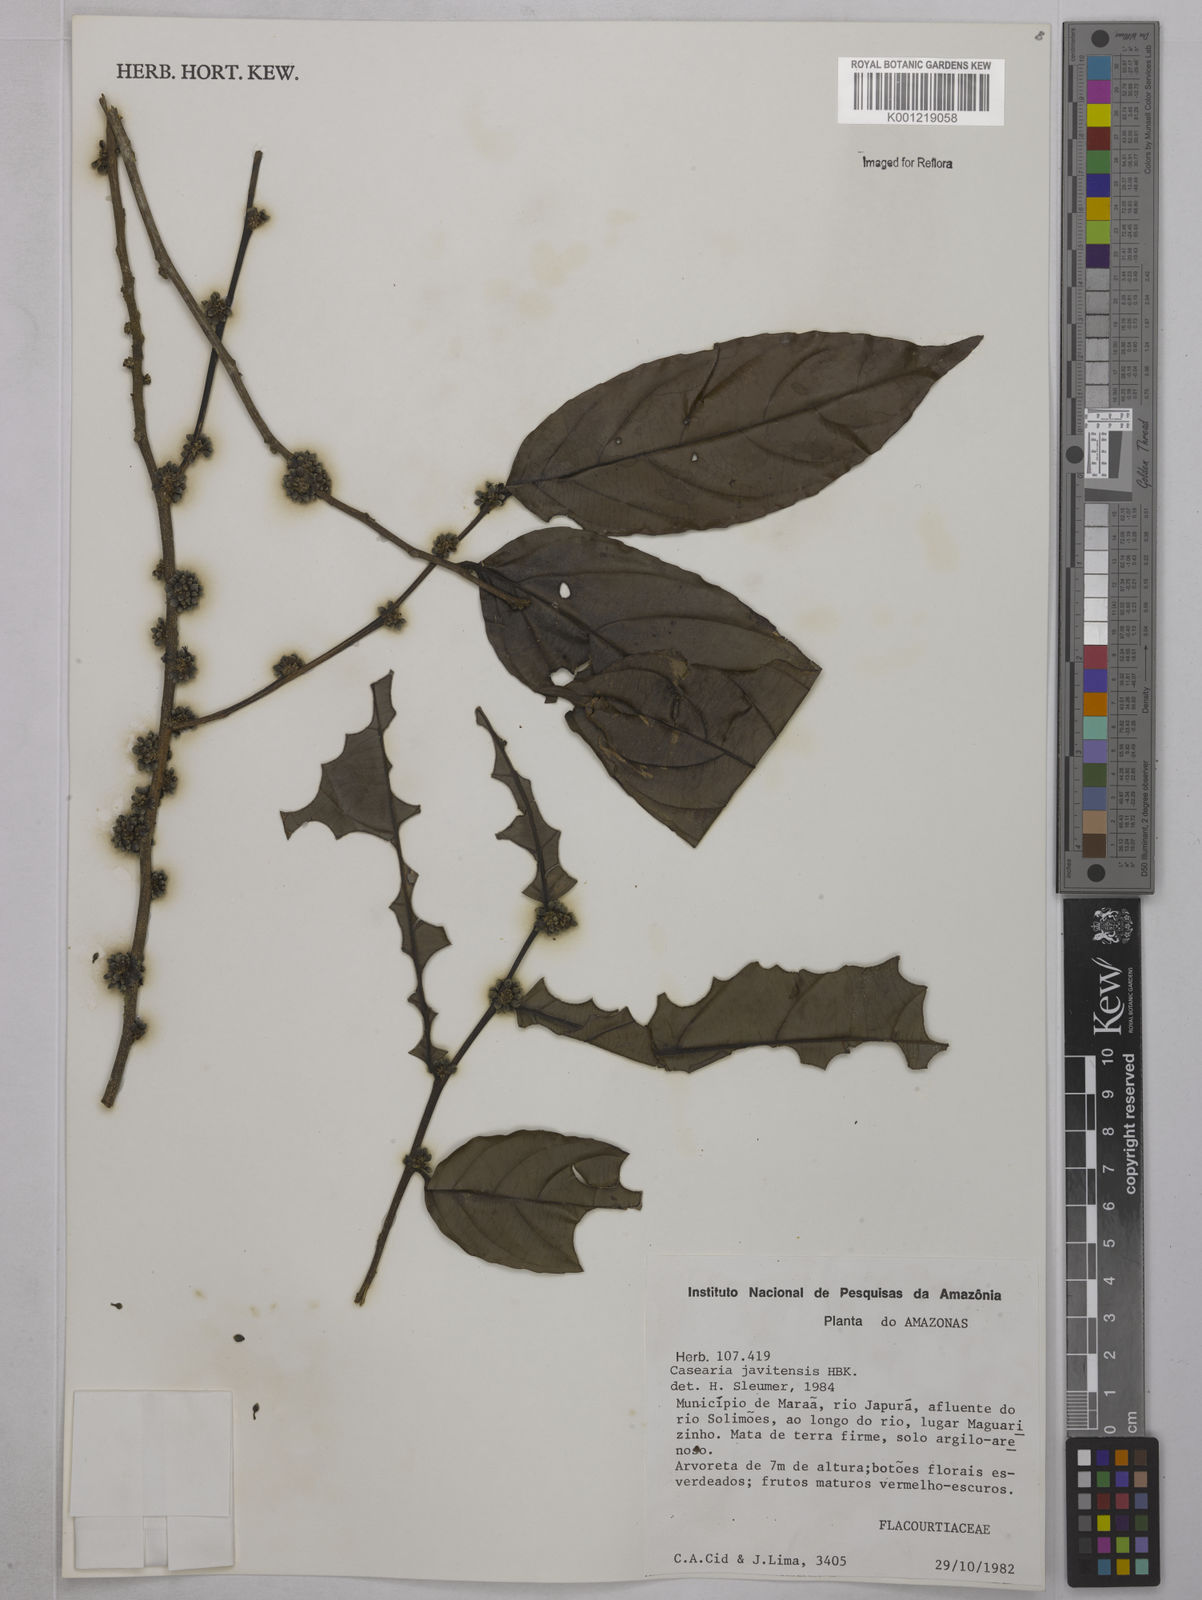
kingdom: Plantae
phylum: Tracheophyta
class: Magnoliopsida
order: Malpighiales
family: Salicaceae
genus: Piparea
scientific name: Piparea multiflora
